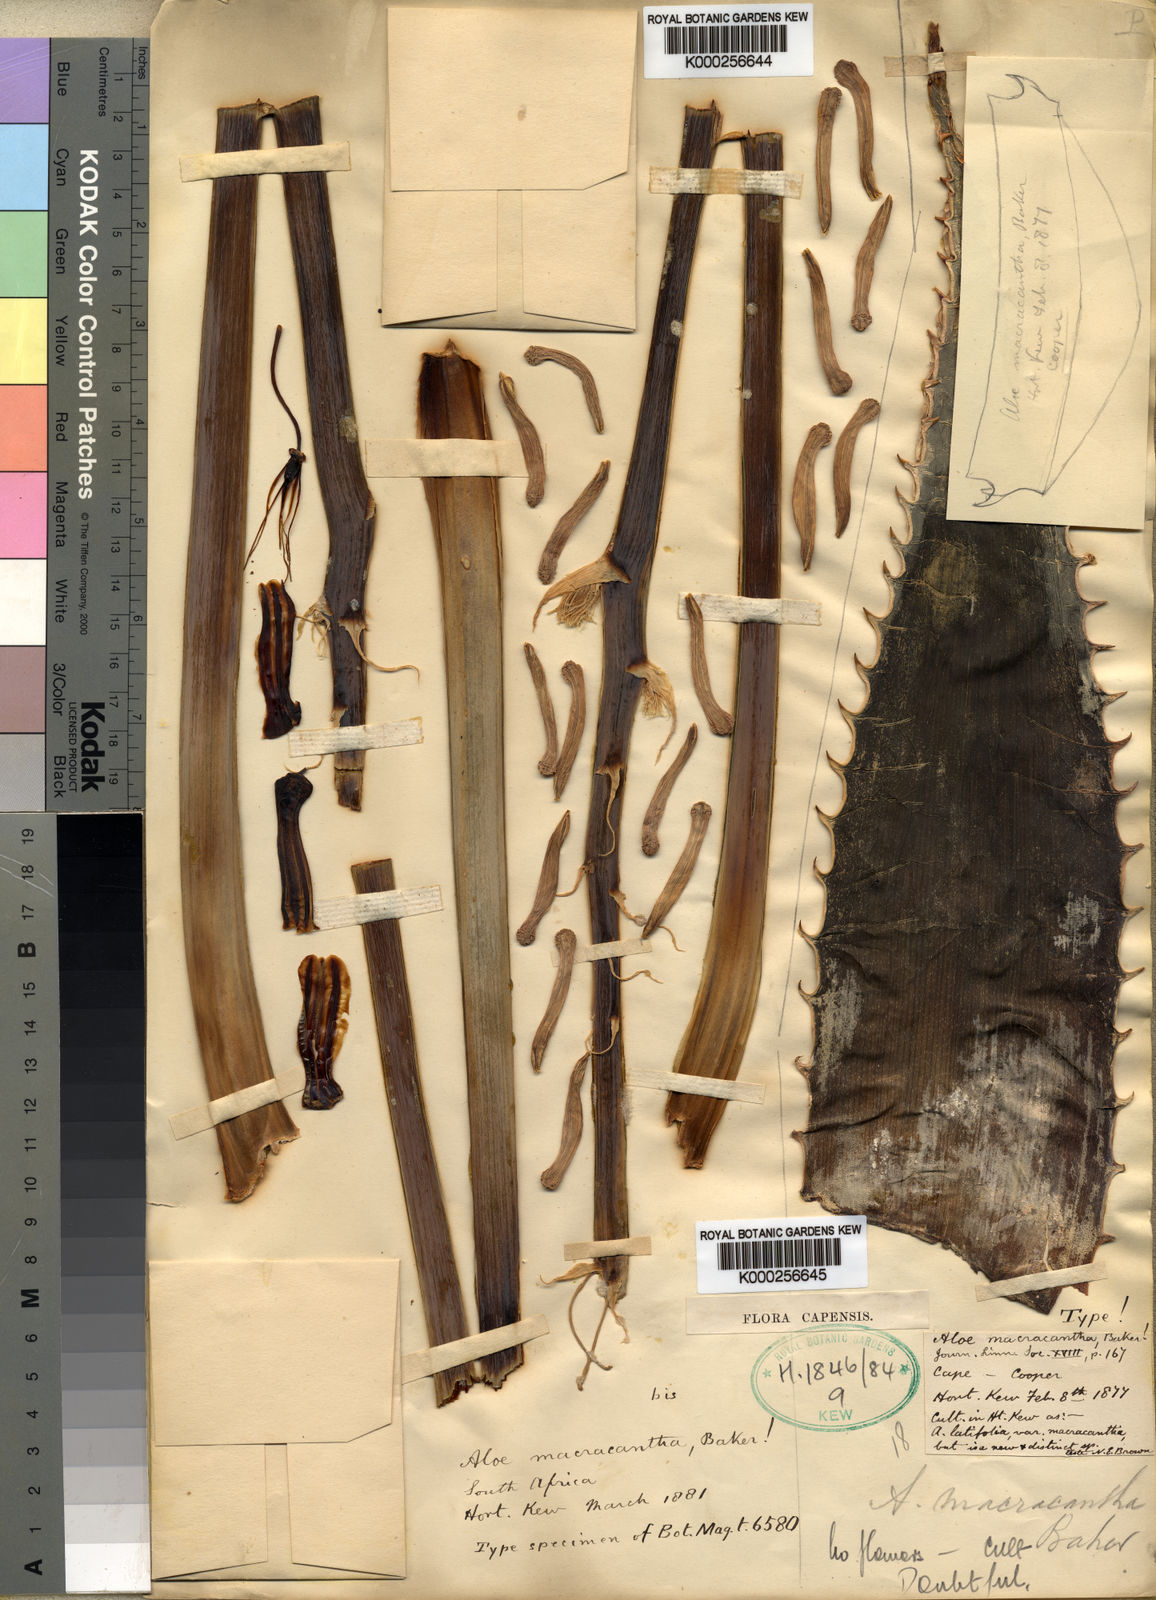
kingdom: Plantae
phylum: Tracheophyta
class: Liliopsida
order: Asparagales
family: Asphodelaceae
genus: Aloe
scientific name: Aloe maculata
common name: Broadleaf aloe
